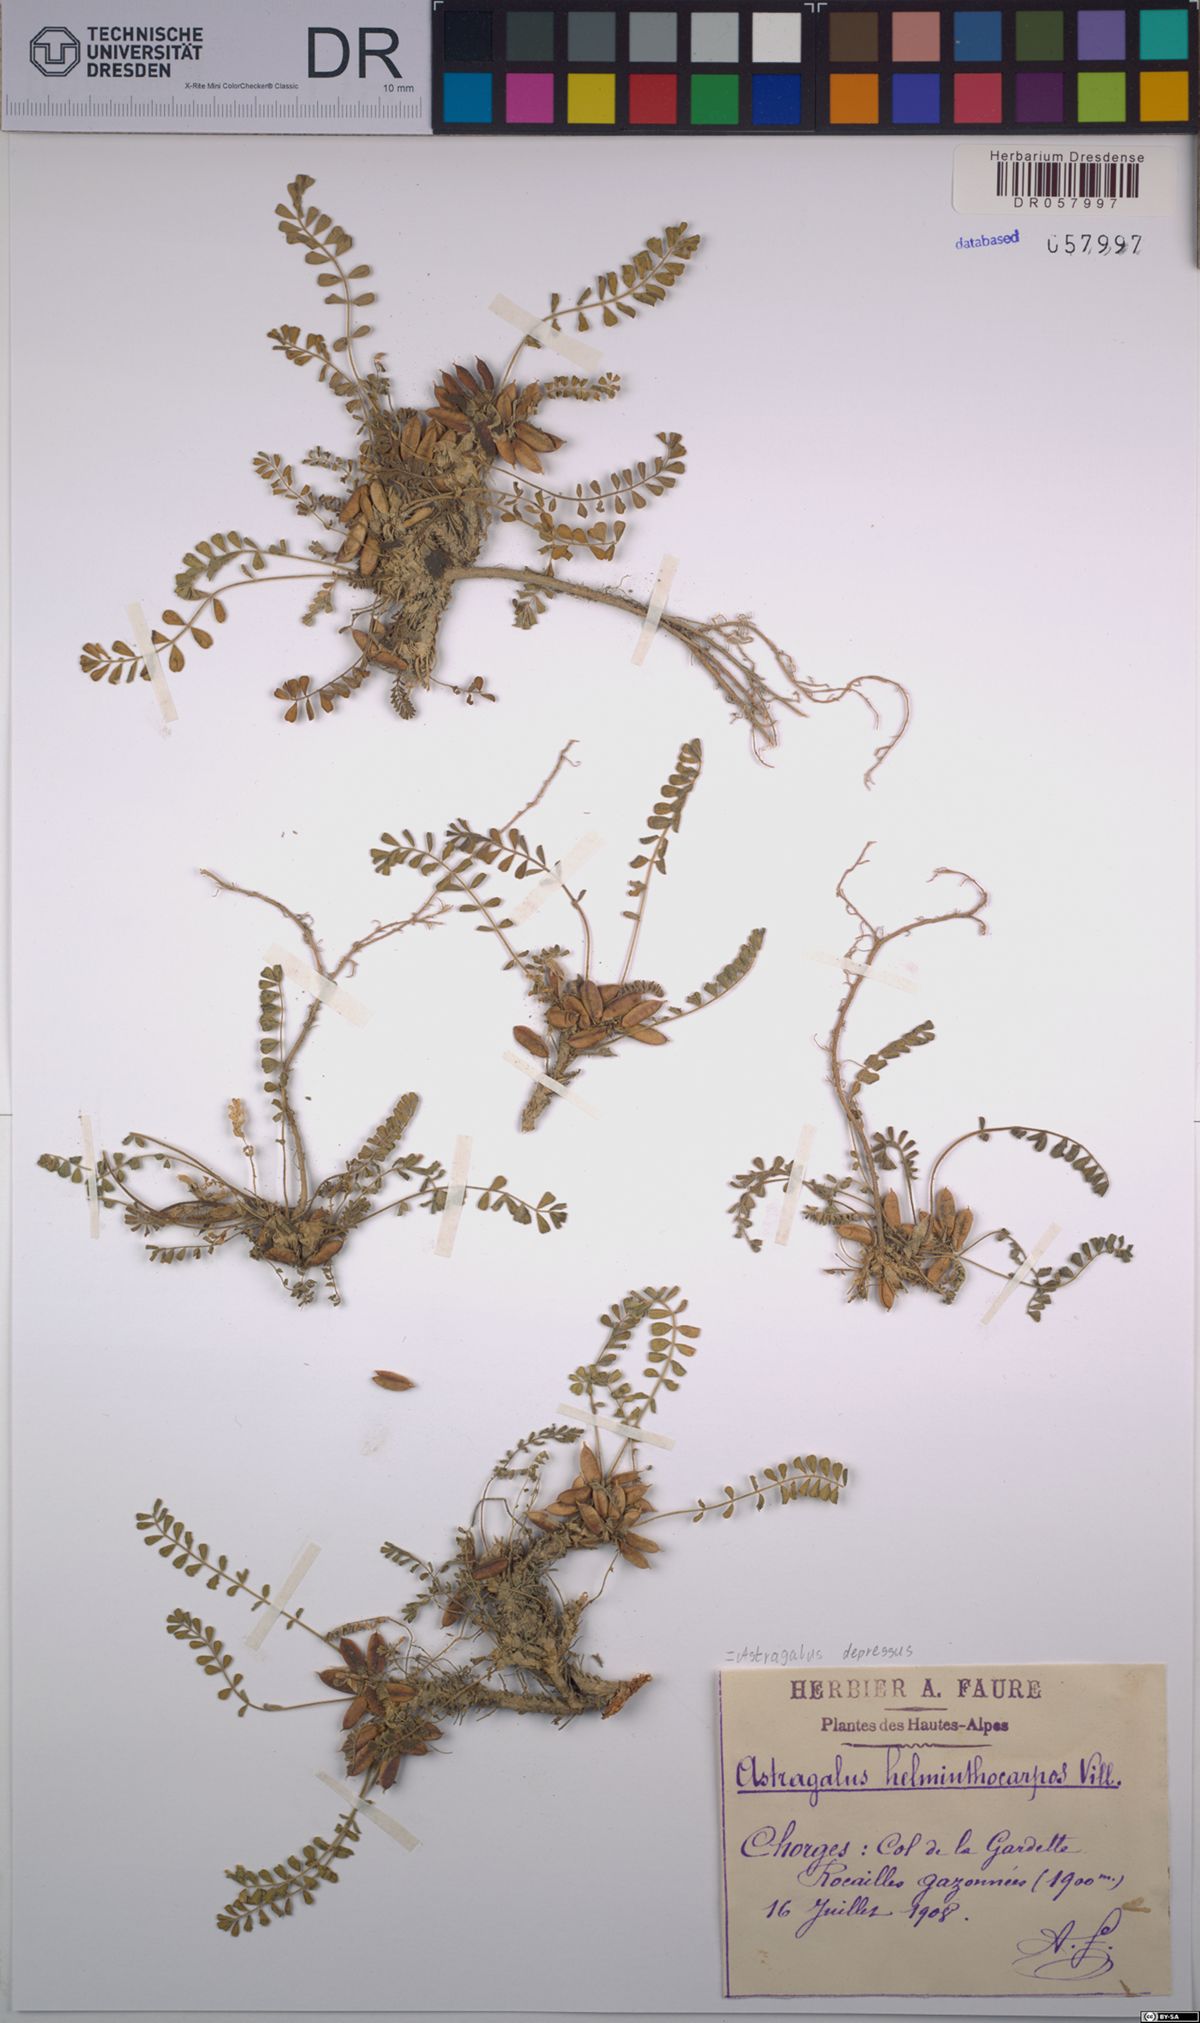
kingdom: Plantae
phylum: Tracheophyta
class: Magnoliopsida
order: Fabales
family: Fabaceae
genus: Astragalus
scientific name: Astragalus depressus
